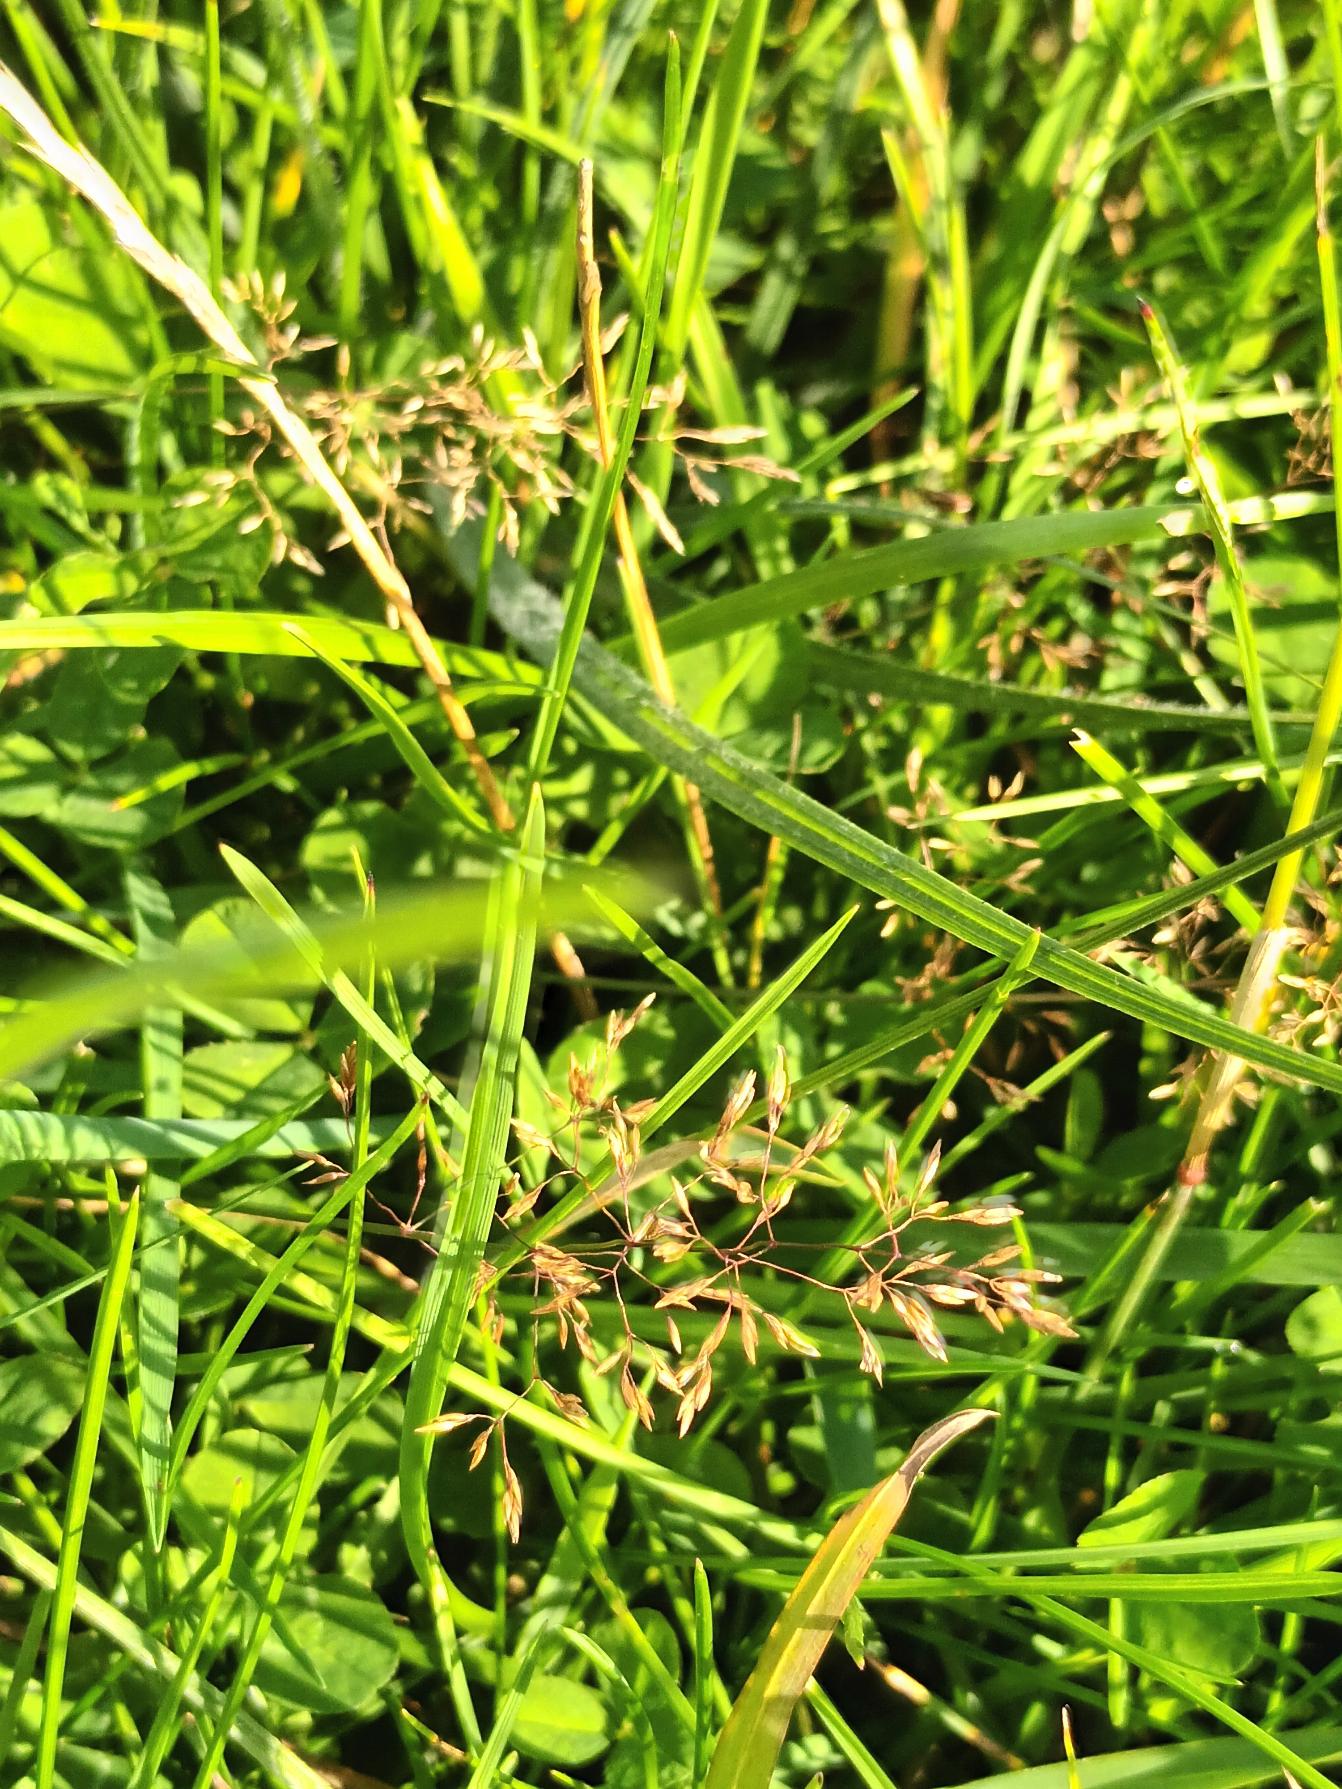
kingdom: Plantae
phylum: Tracheophyta
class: Liliopsida
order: Poales
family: Poaceae
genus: Agrostis
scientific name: Agrostis capillaris
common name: Almindelig hvene
